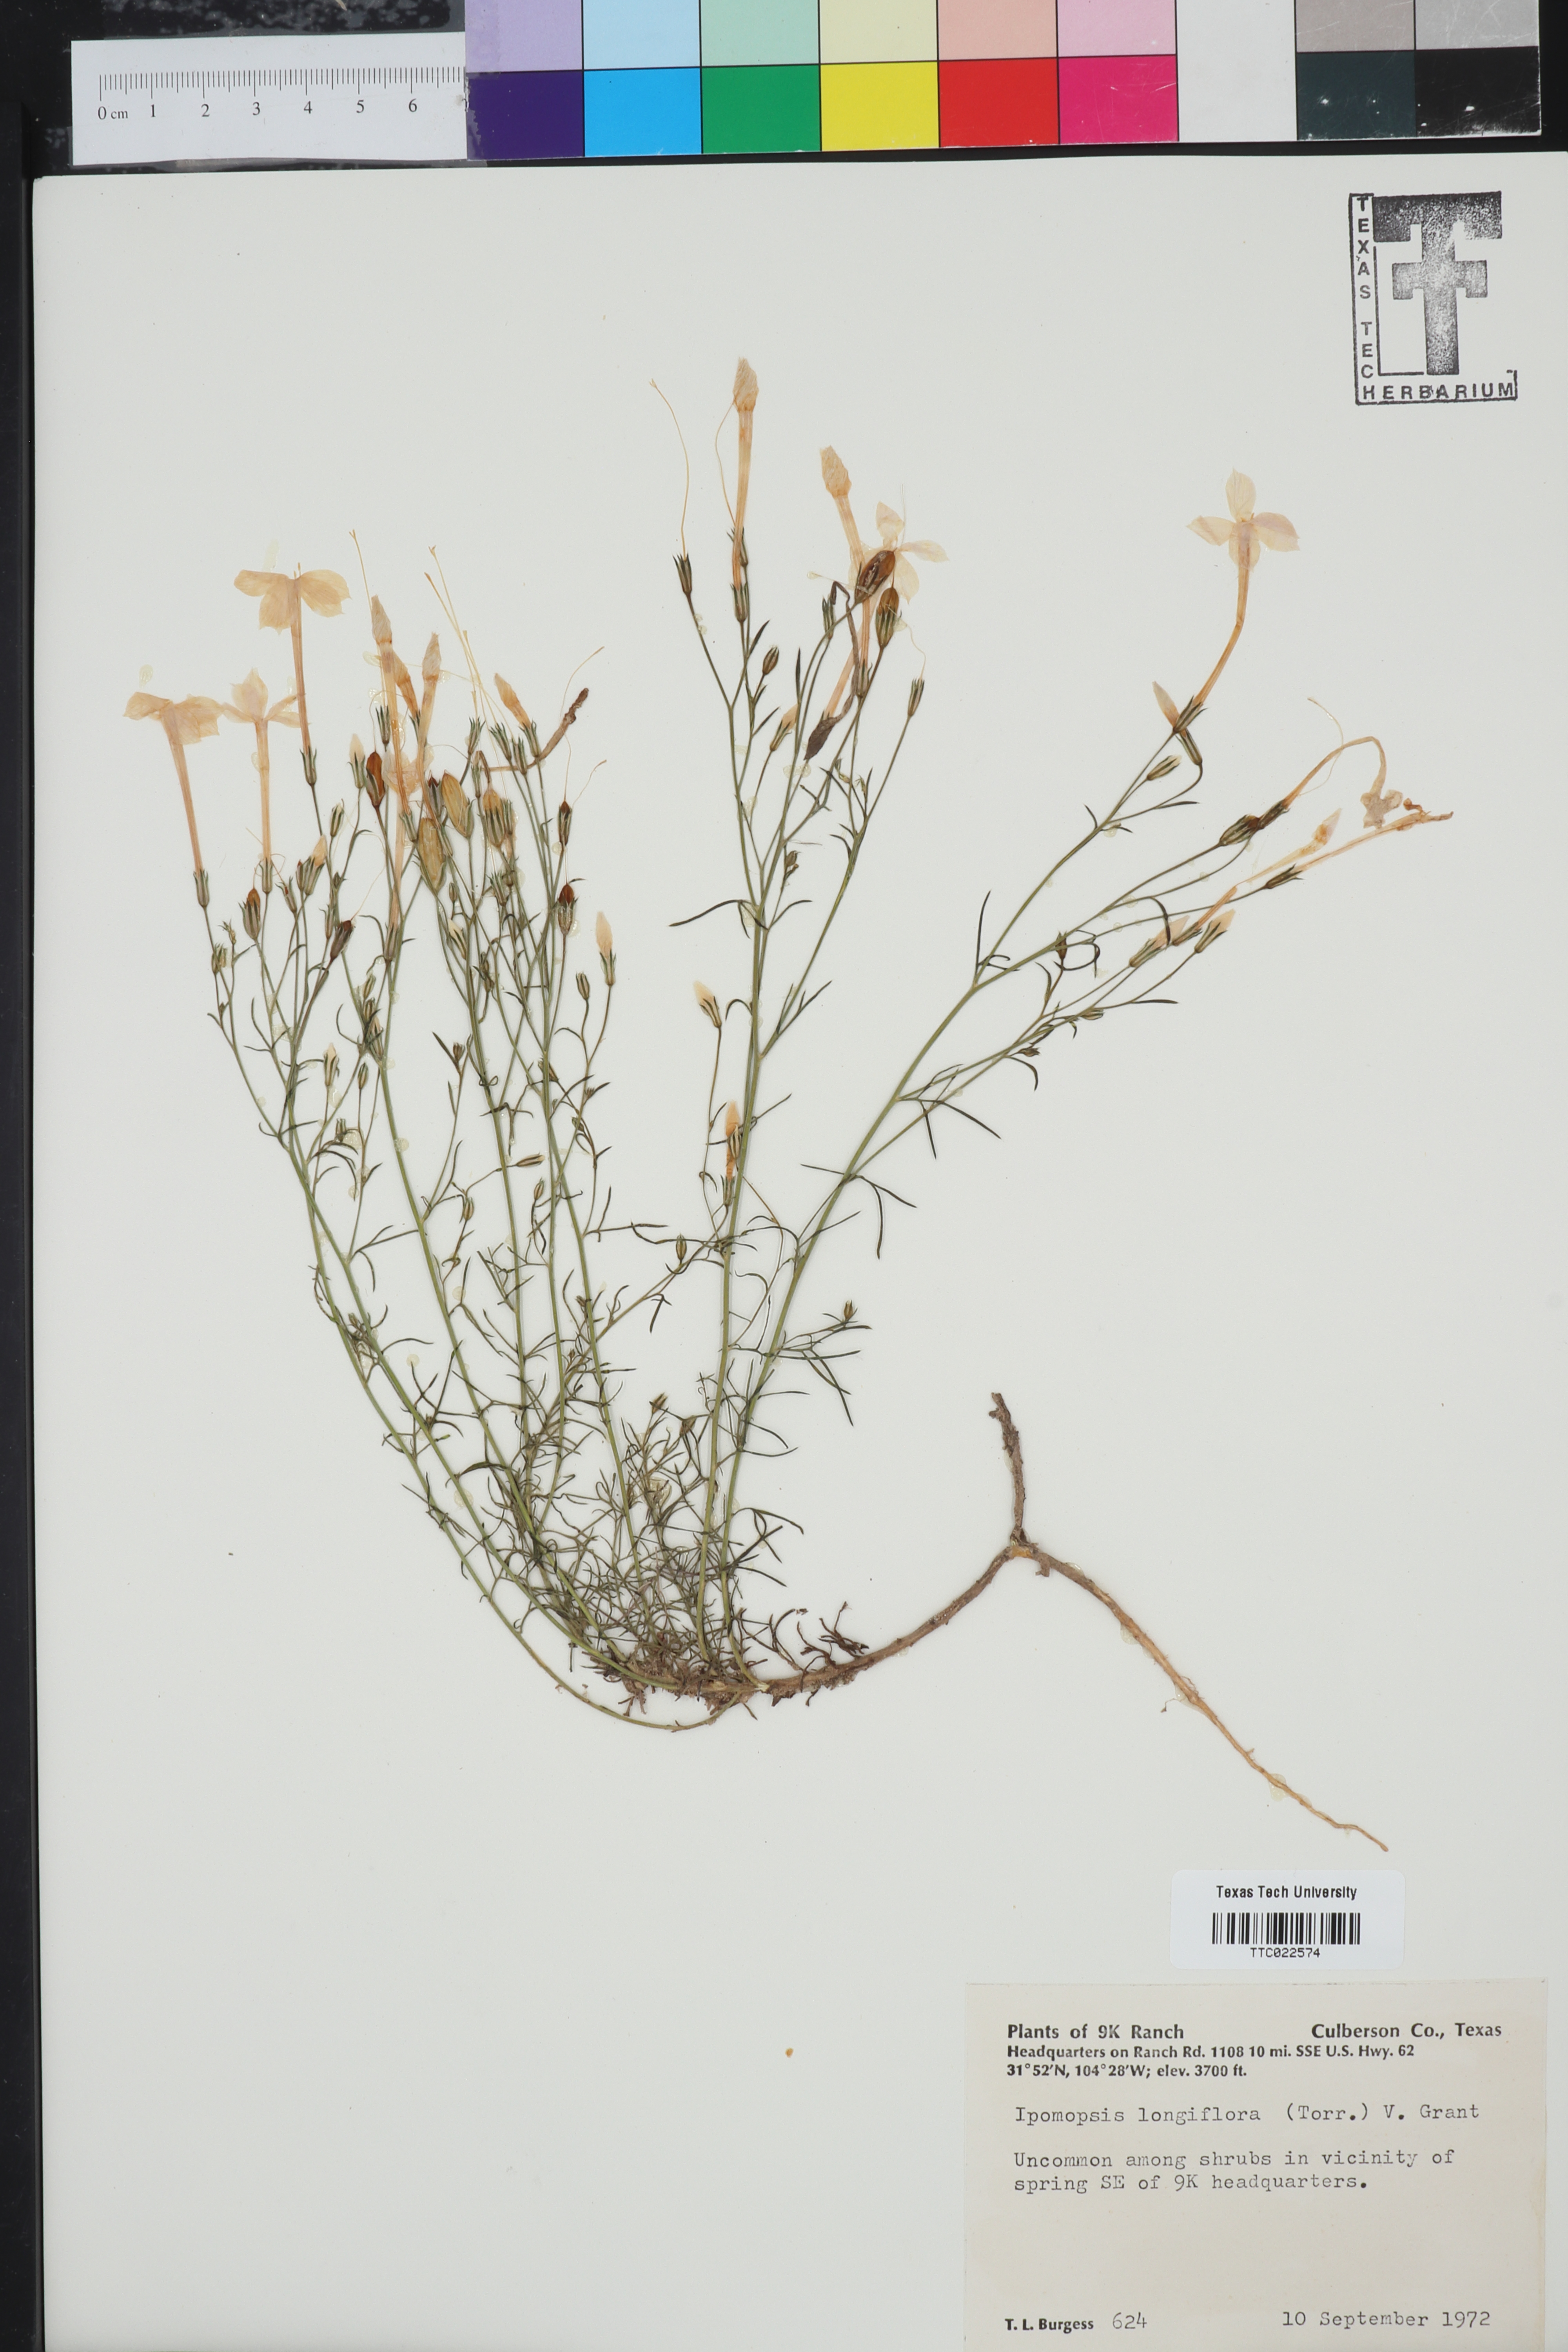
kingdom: Plantae
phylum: Tracheophyta
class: Magnoliopsida
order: Ericales
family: Polemoniaceae
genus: Ipomopsis
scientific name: Ipomopsis longiflora
